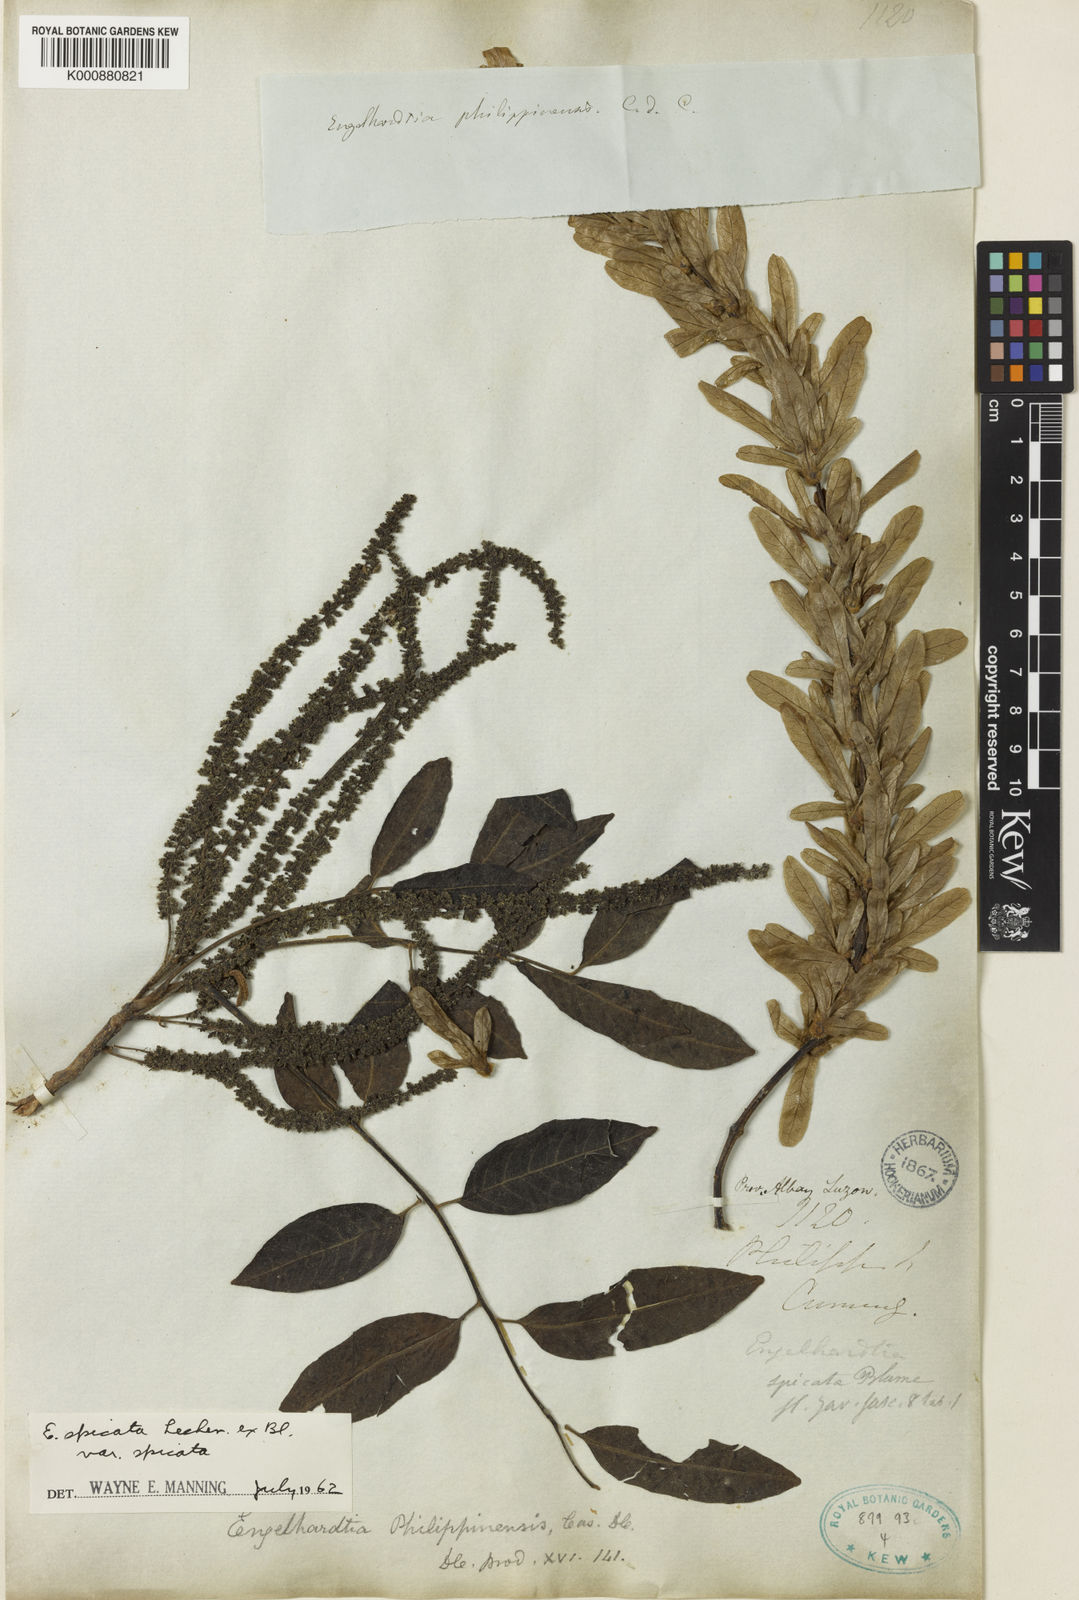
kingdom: Plantae
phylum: Tracheophyta
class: Magnoliopsida
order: Fagales
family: Juglandaceae
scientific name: Juglandaceae
